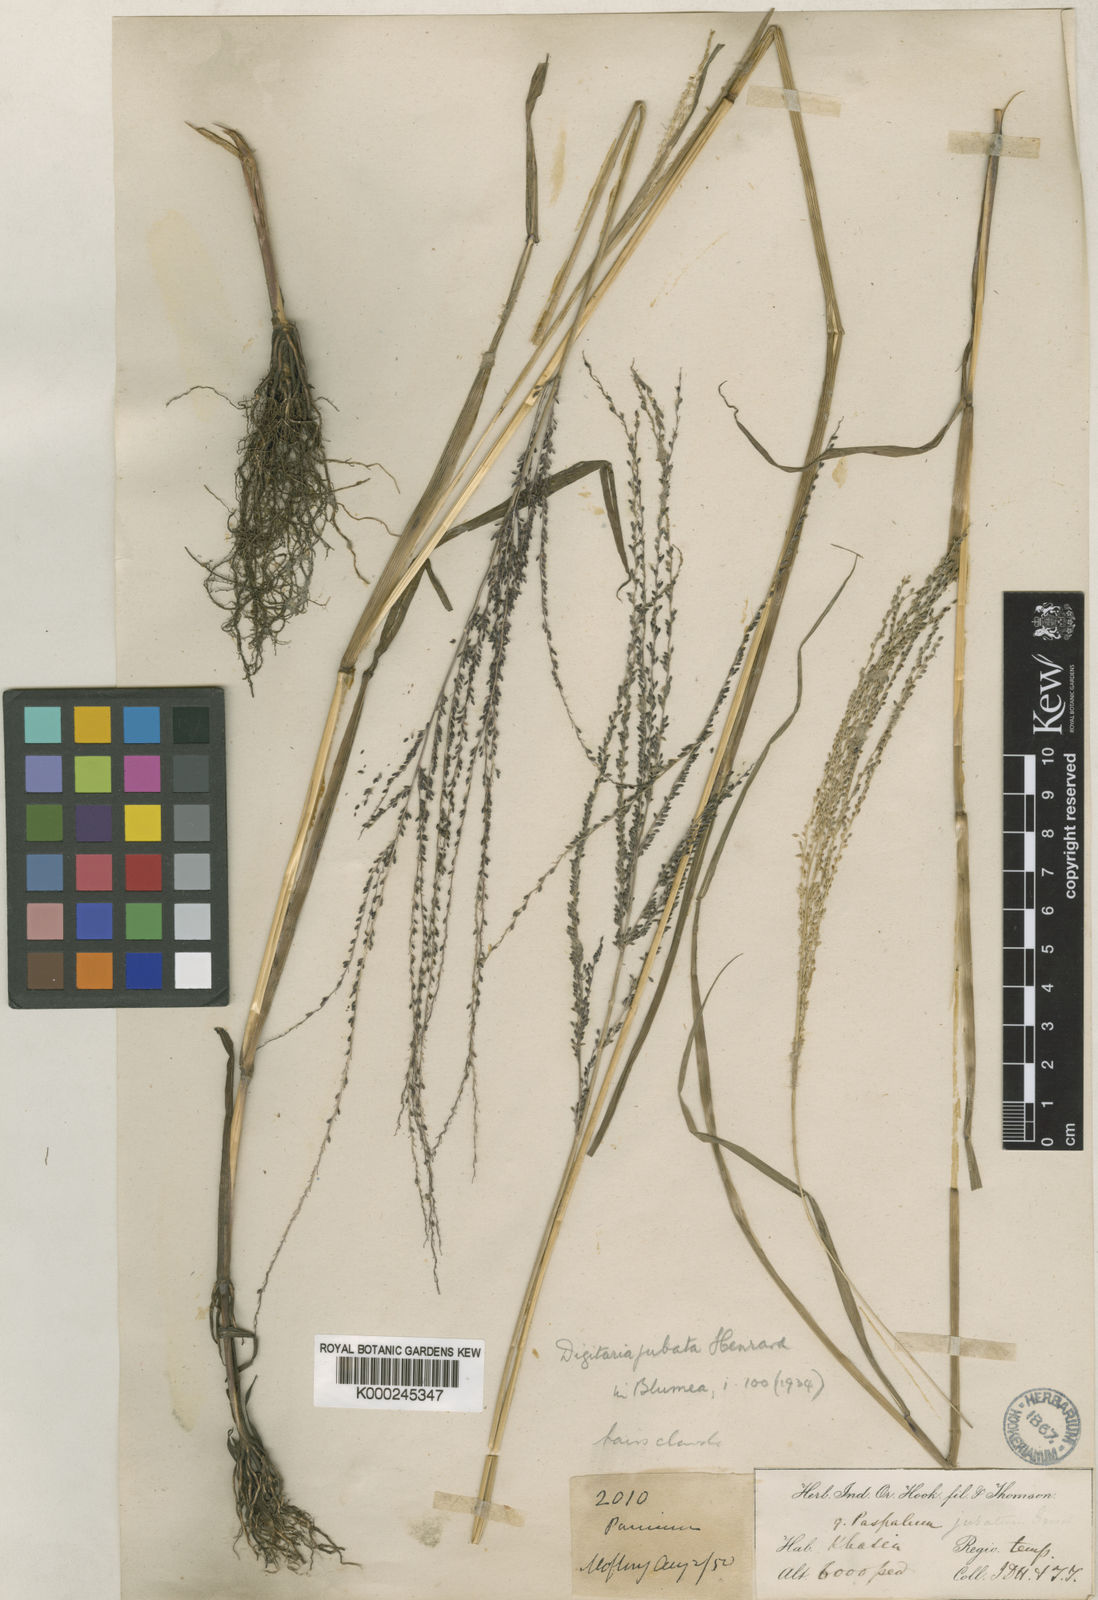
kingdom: Plantae
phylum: Tracheophyta
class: Liliopsida
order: Poales
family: Poaceae
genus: Digitaria
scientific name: Digitaria jubata
